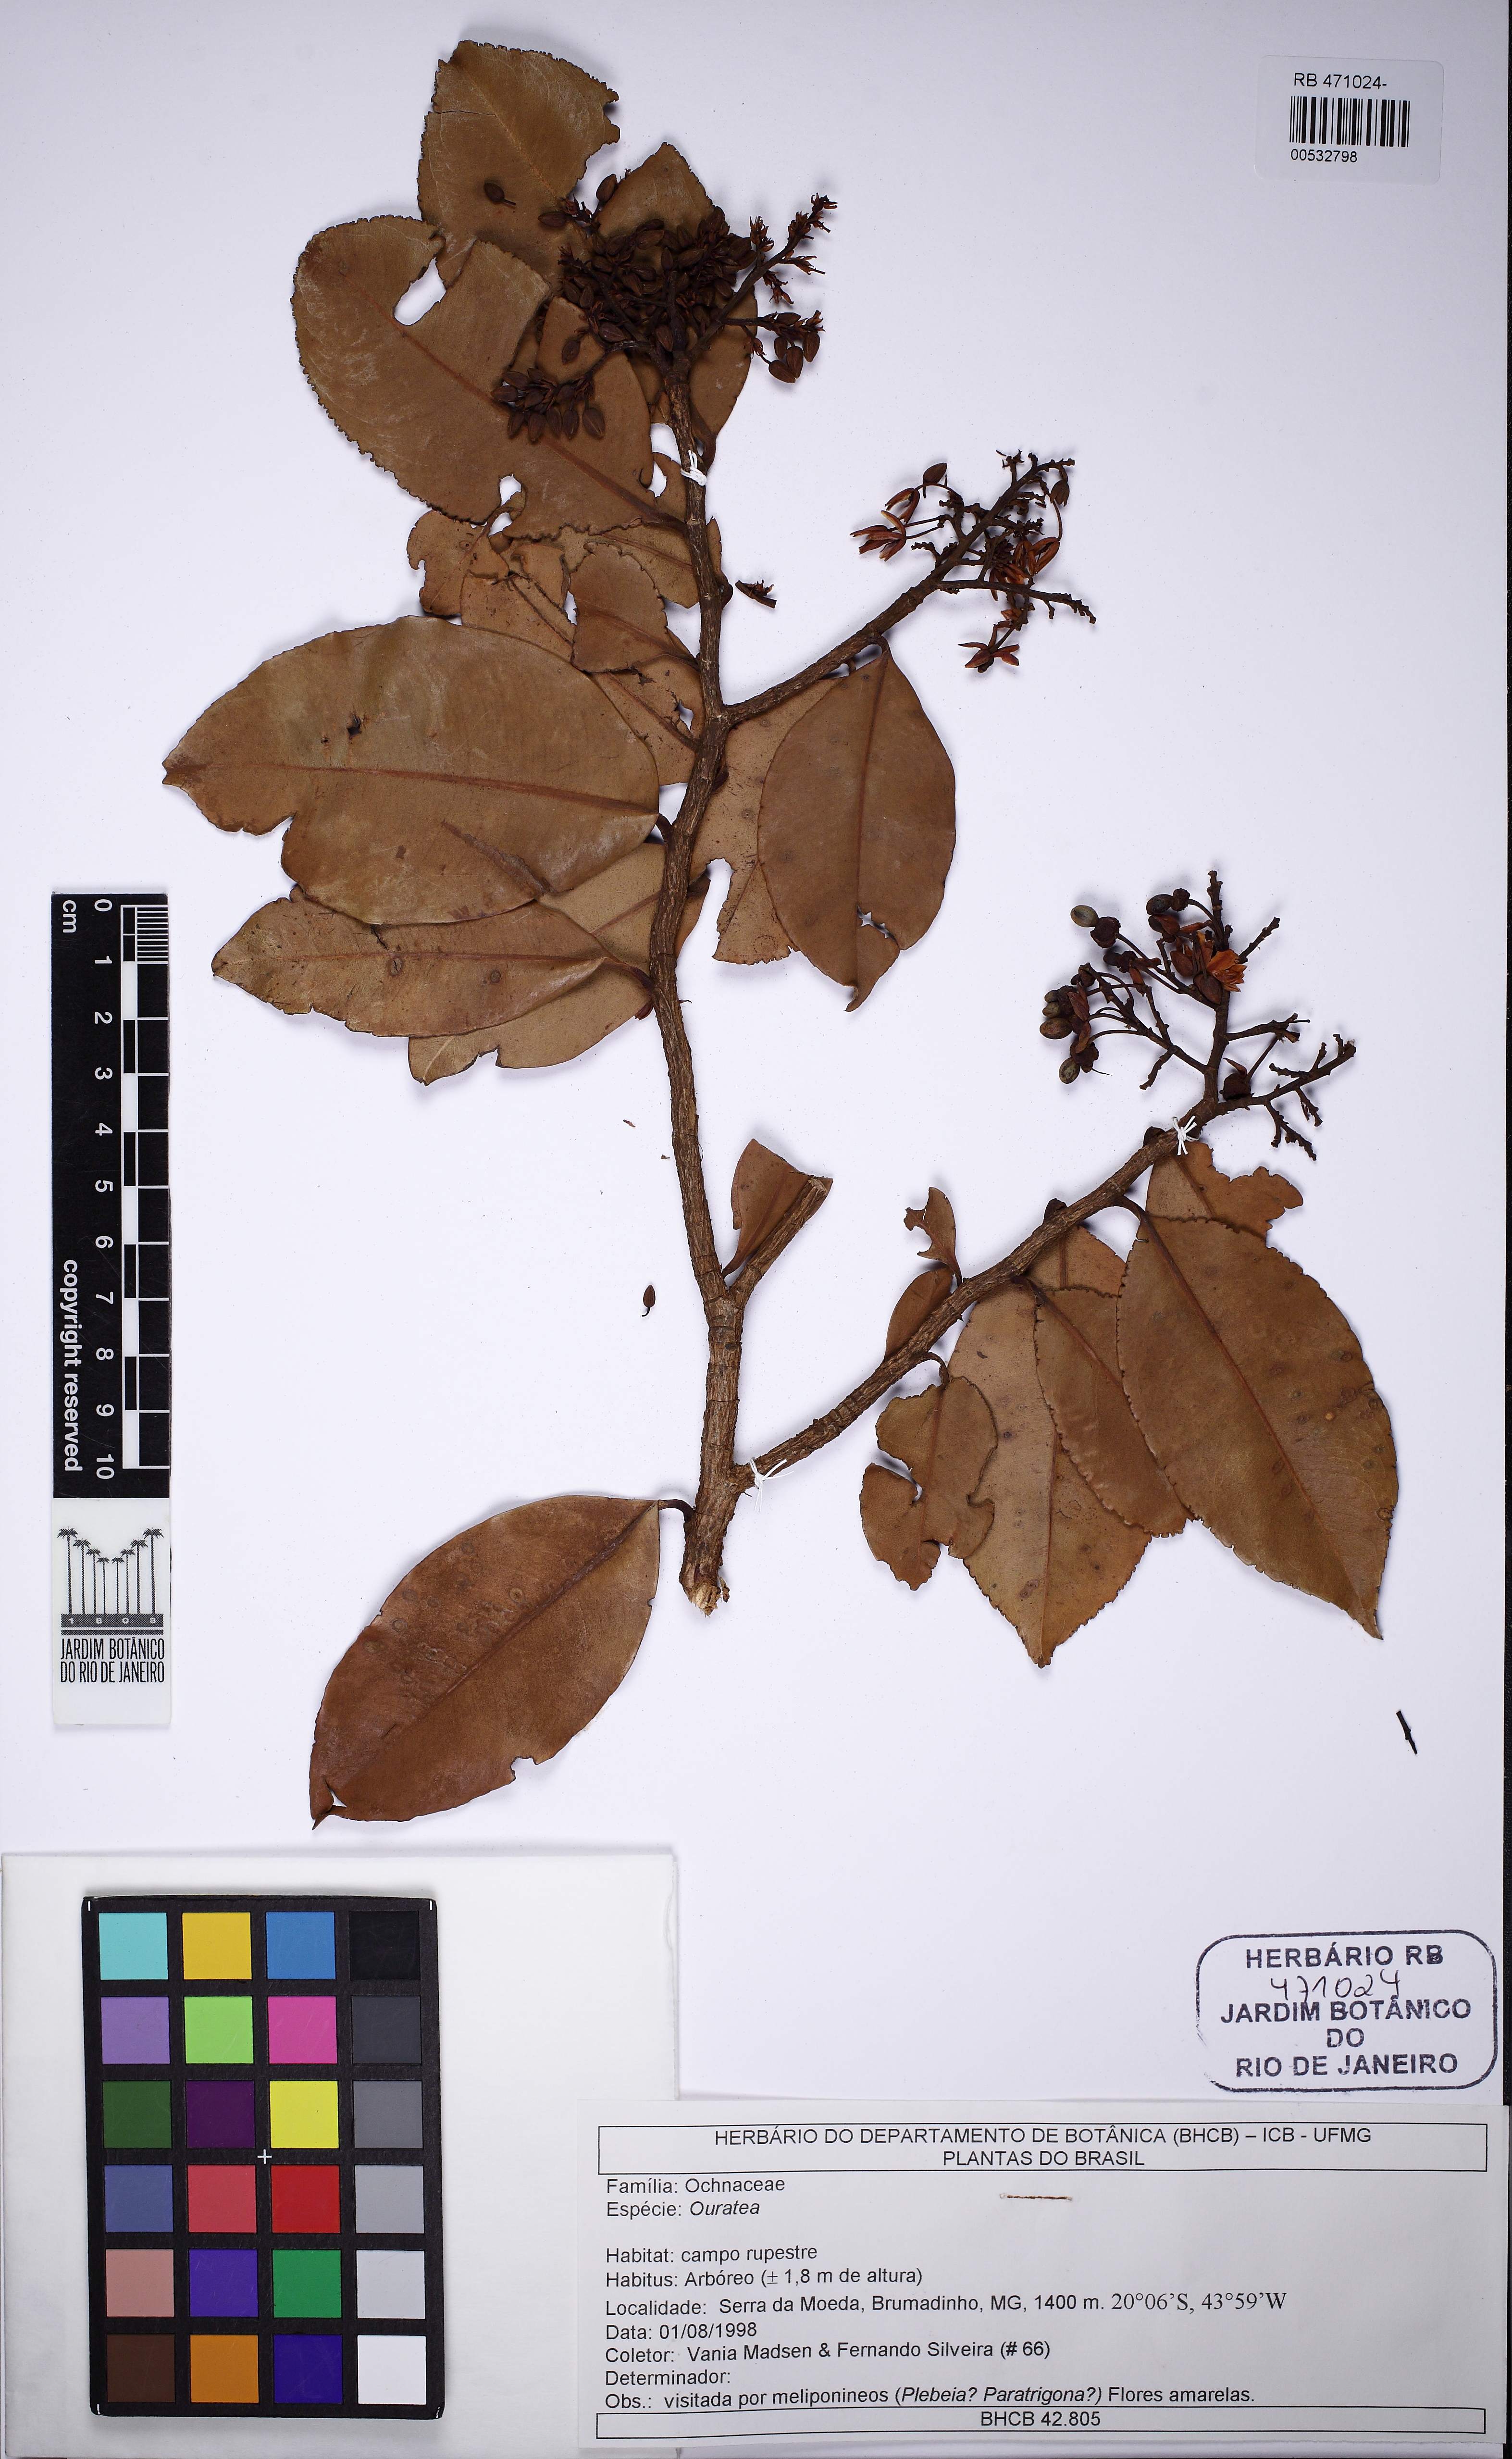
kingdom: Plantae
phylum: Tracheophyta
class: Magnoliopsida
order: Malpighiales
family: Ochnaceae
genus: Ouratea
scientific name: Ouratea semiserrata
